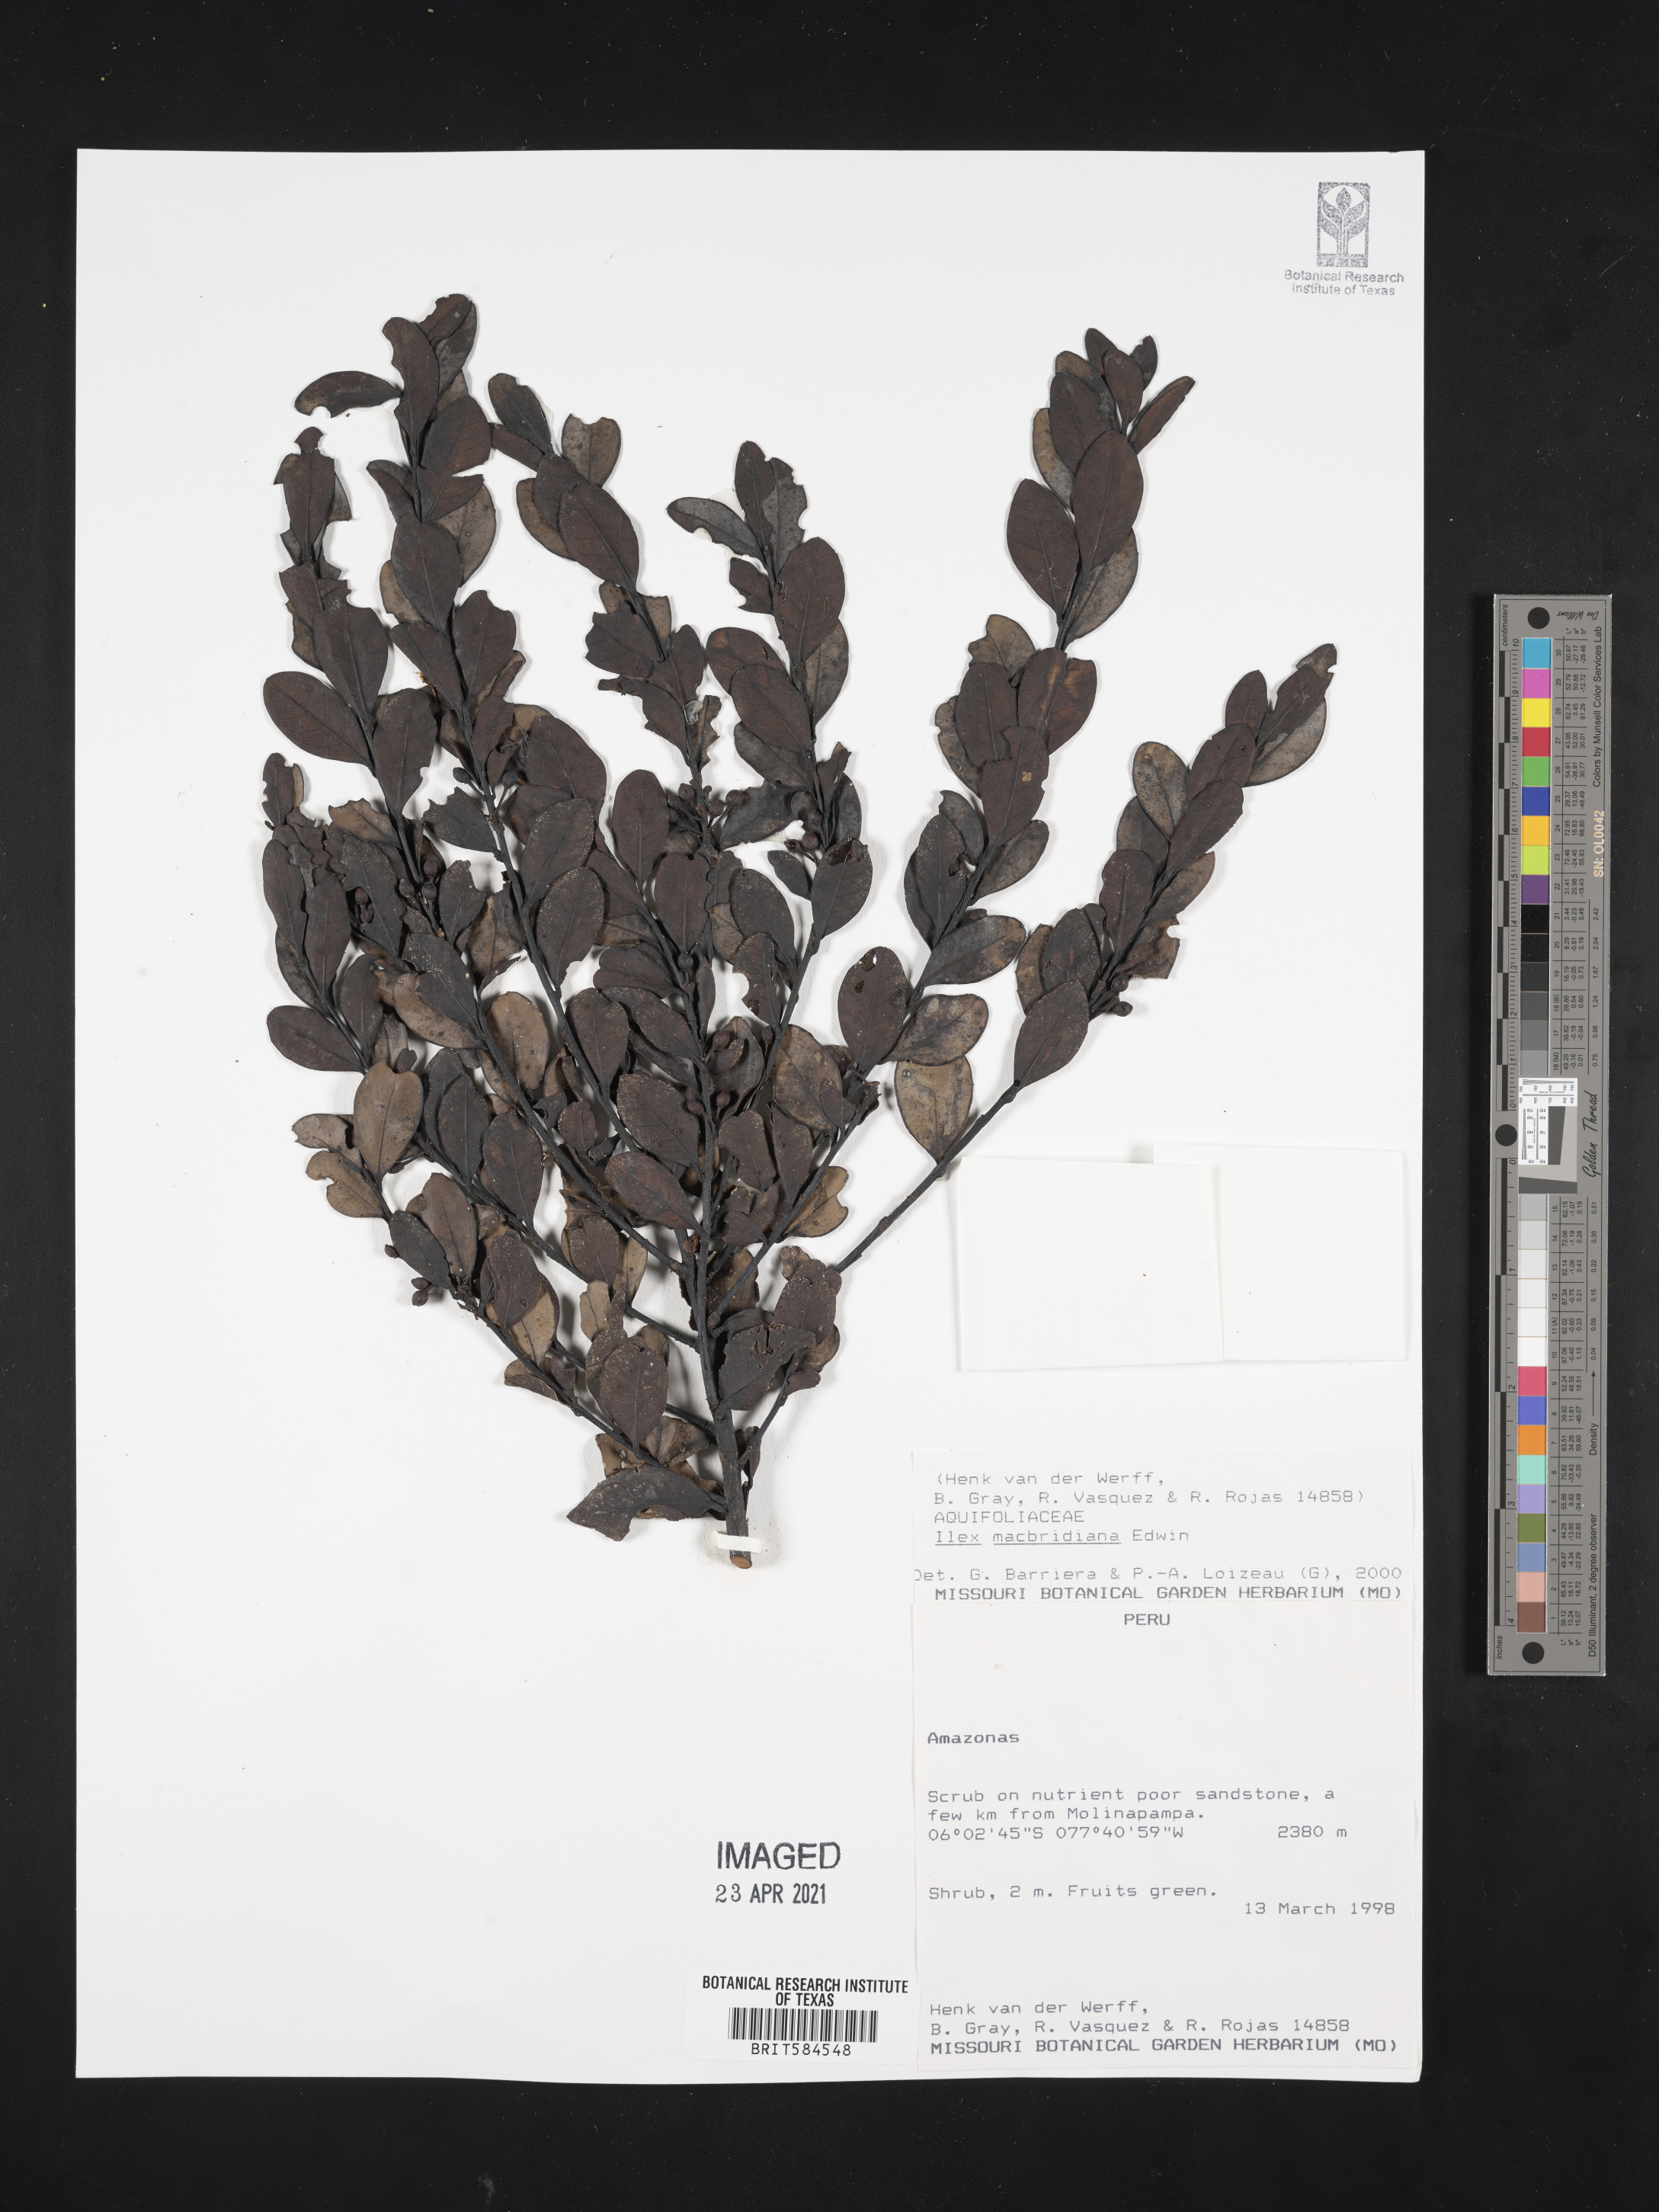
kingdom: Plantae
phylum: Tracheophyta
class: Magnoliopsida
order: Aquifoliales
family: Aquifoliaceae
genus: Ilex
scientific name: Ilex macbridiana
